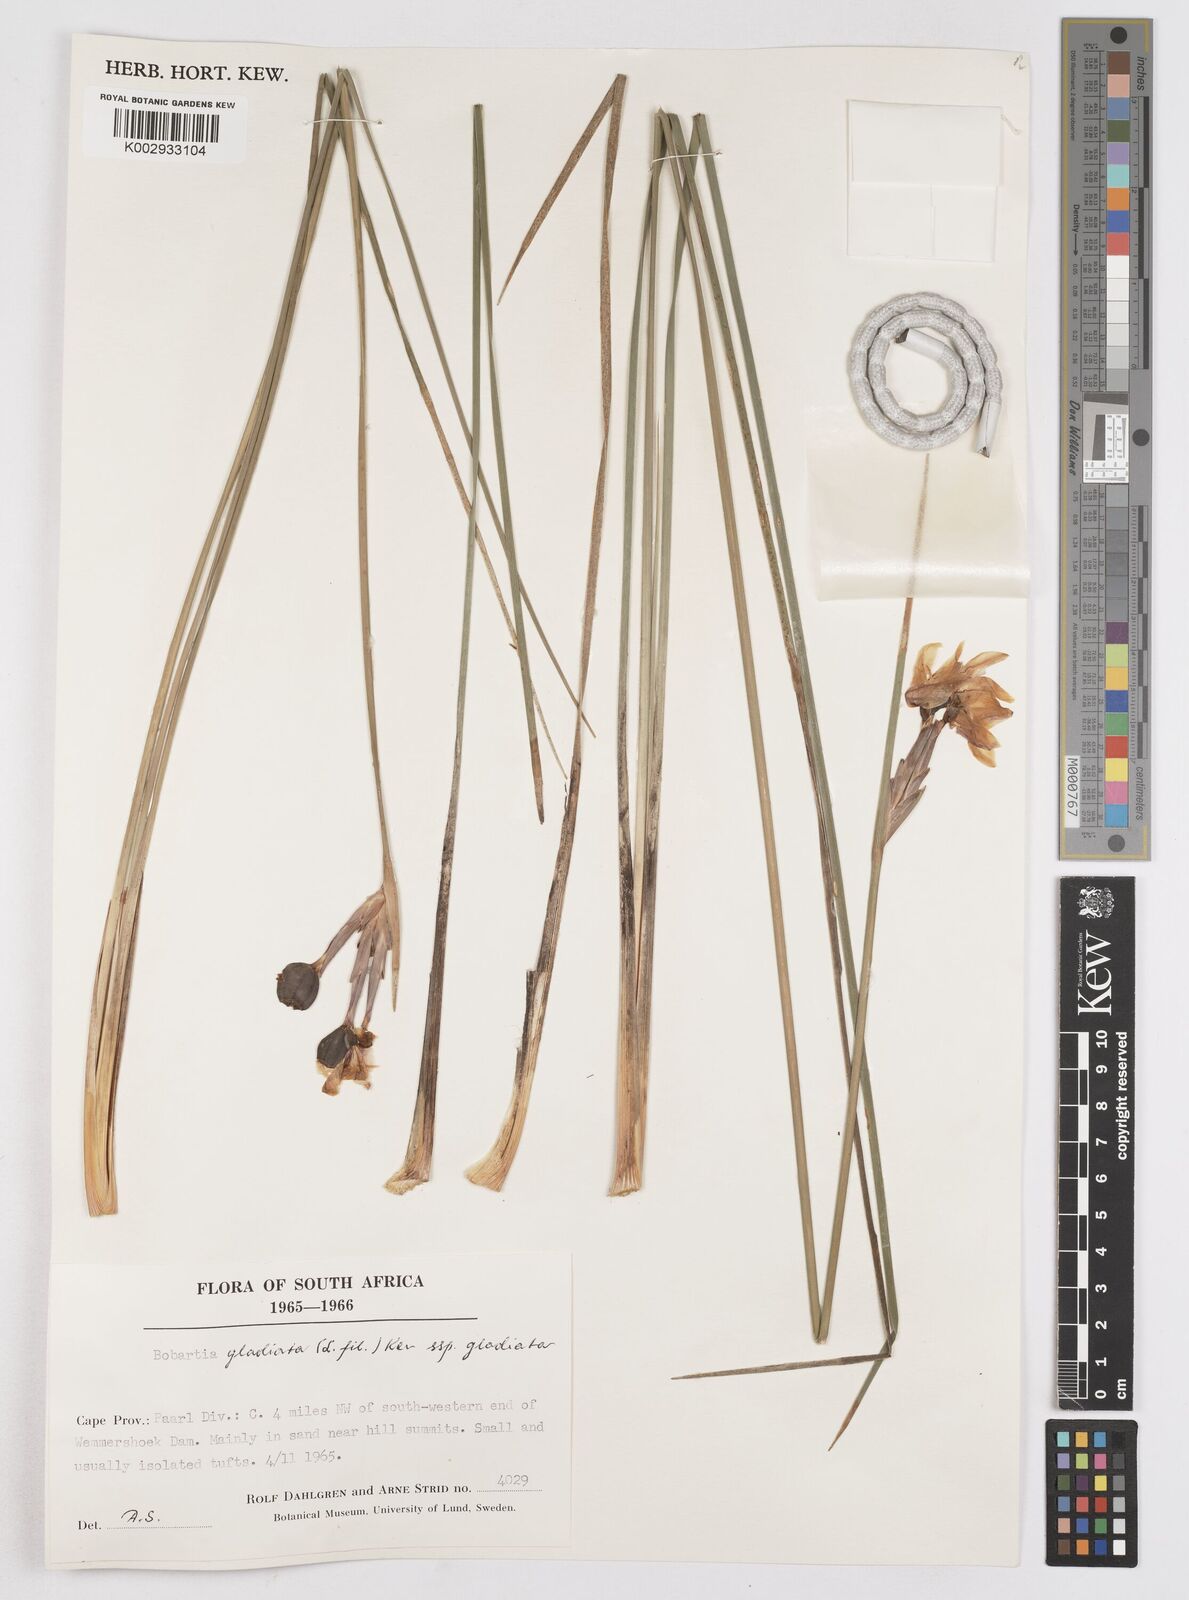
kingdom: Plantae
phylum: Tracheophyta
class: Liliopsida
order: Asparagales
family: Iridaceae
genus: Bobartia
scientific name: Bobartia gladiata
